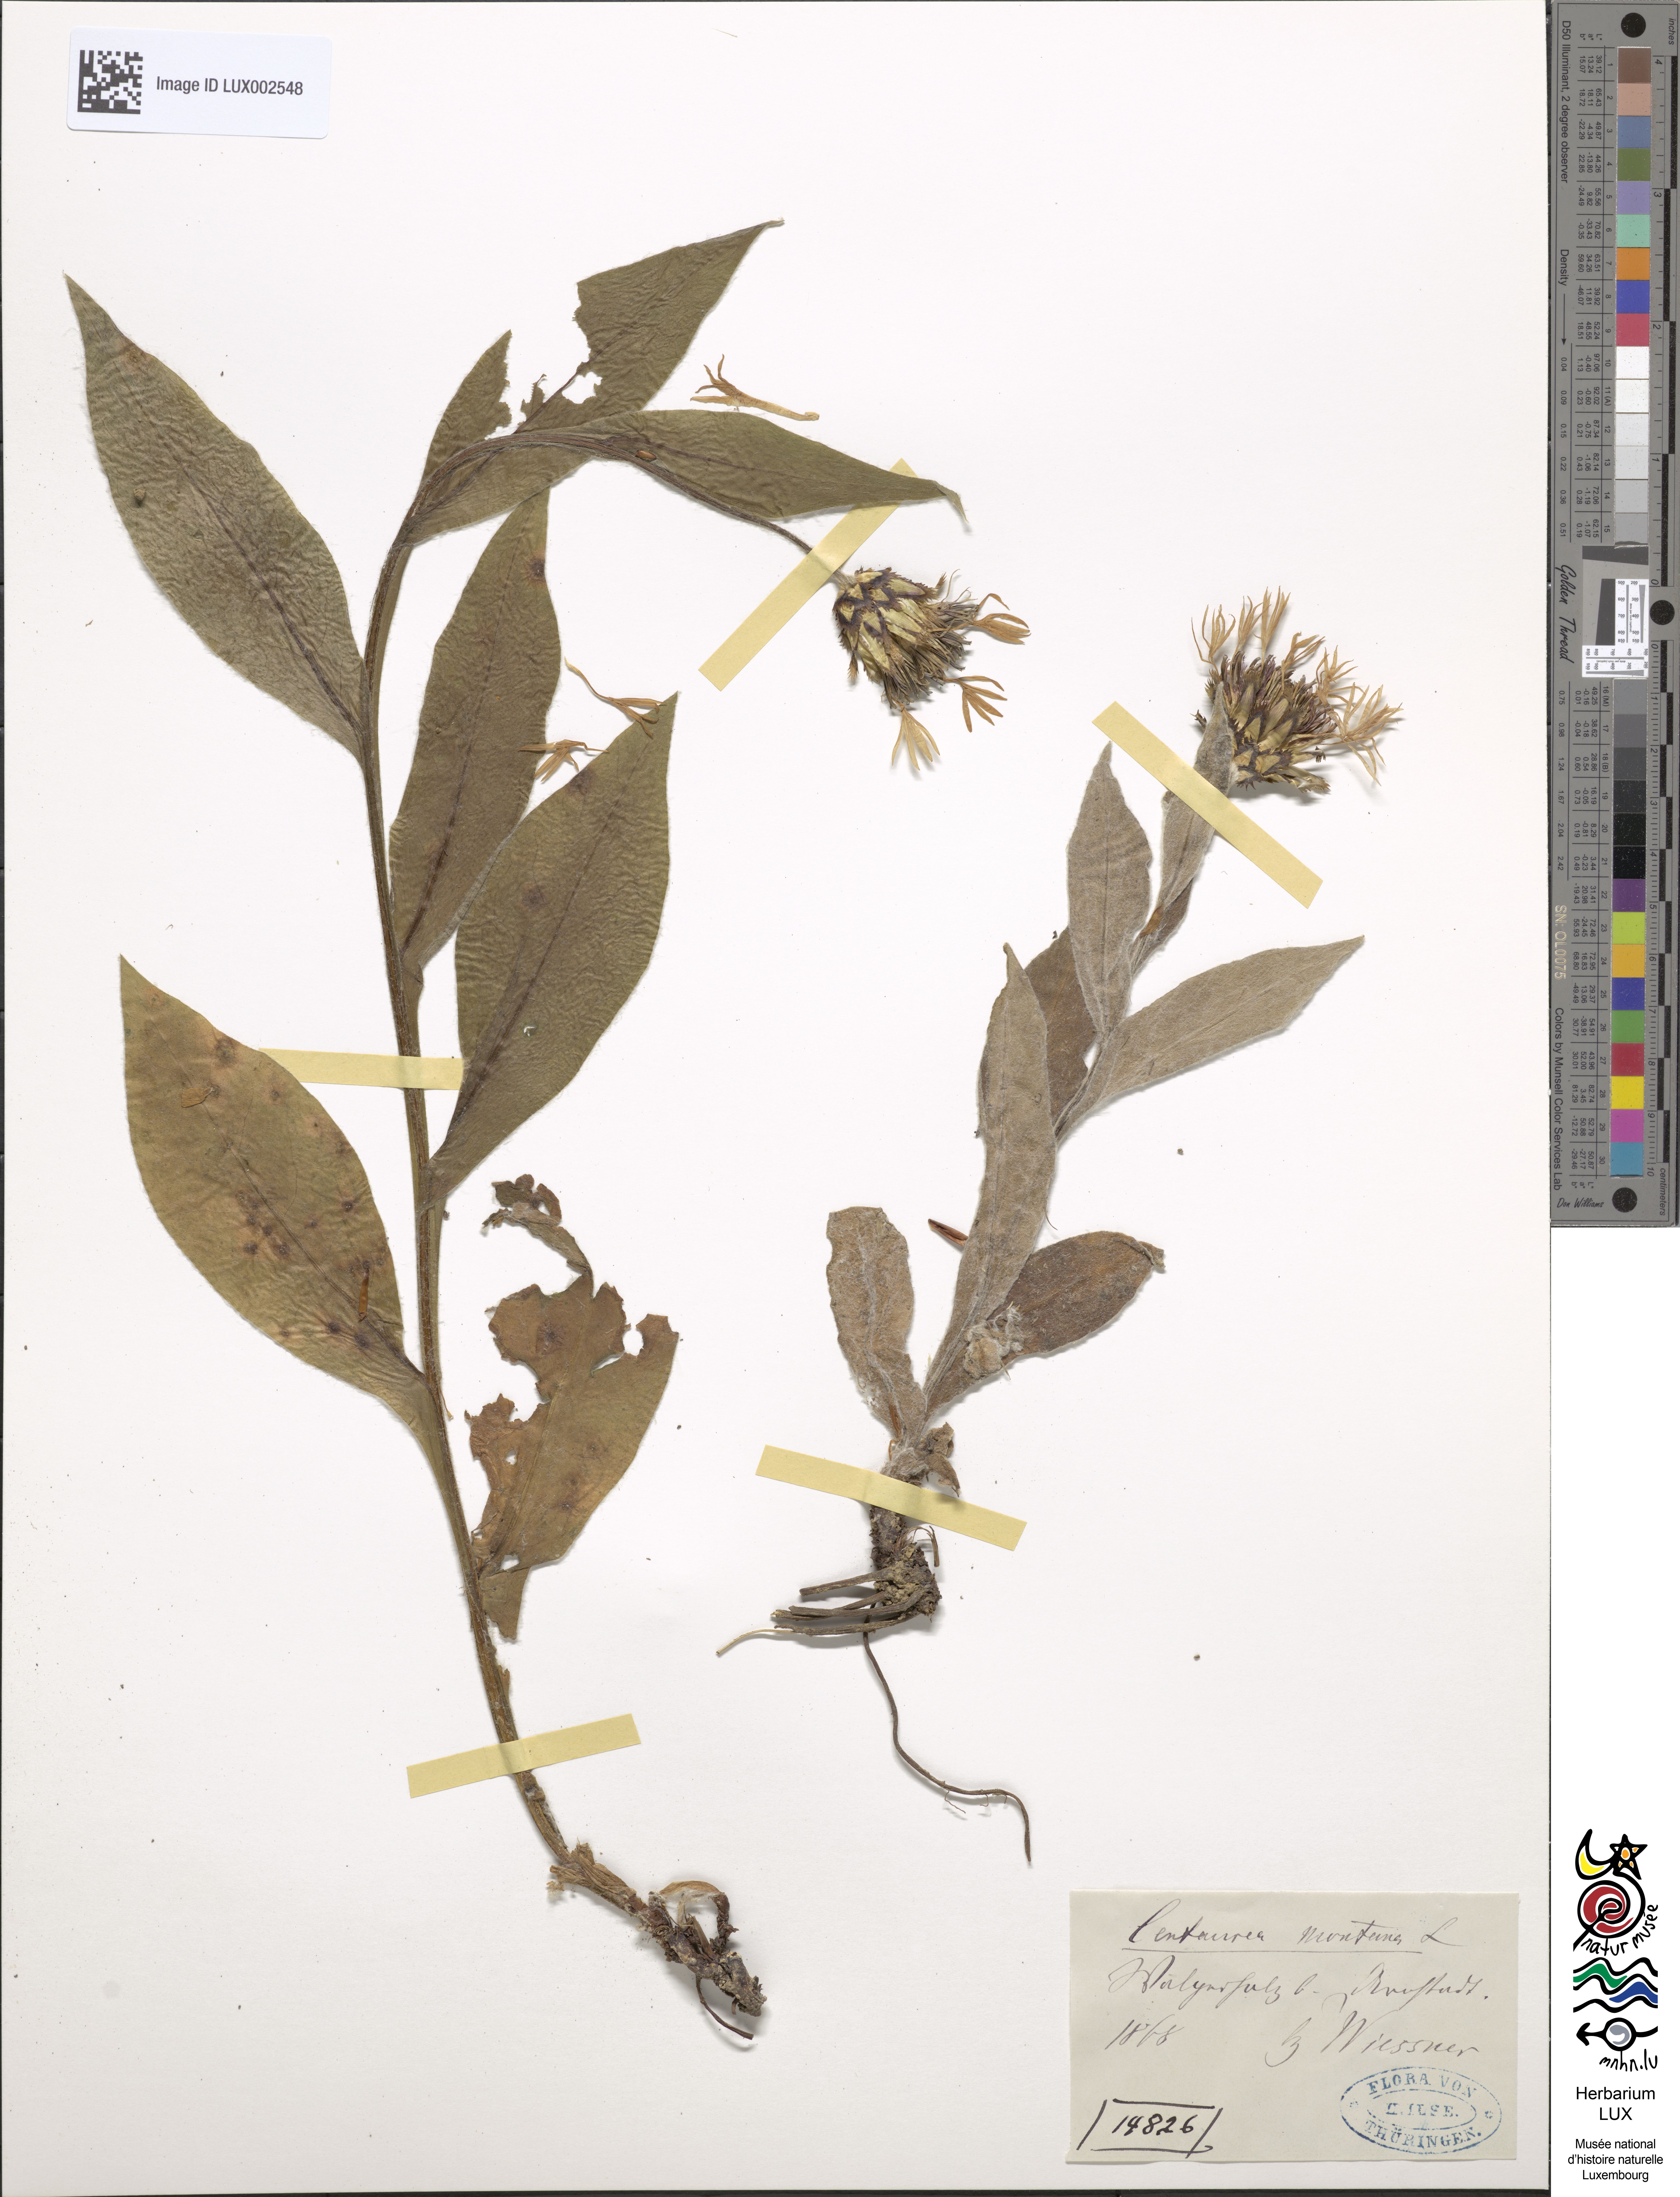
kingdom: Plantae
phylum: Tracheophyta
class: Magnoliopsida
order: Asterales
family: Asteraceae
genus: Centaurea
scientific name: Centaurea montana
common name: Perennial cornflower
